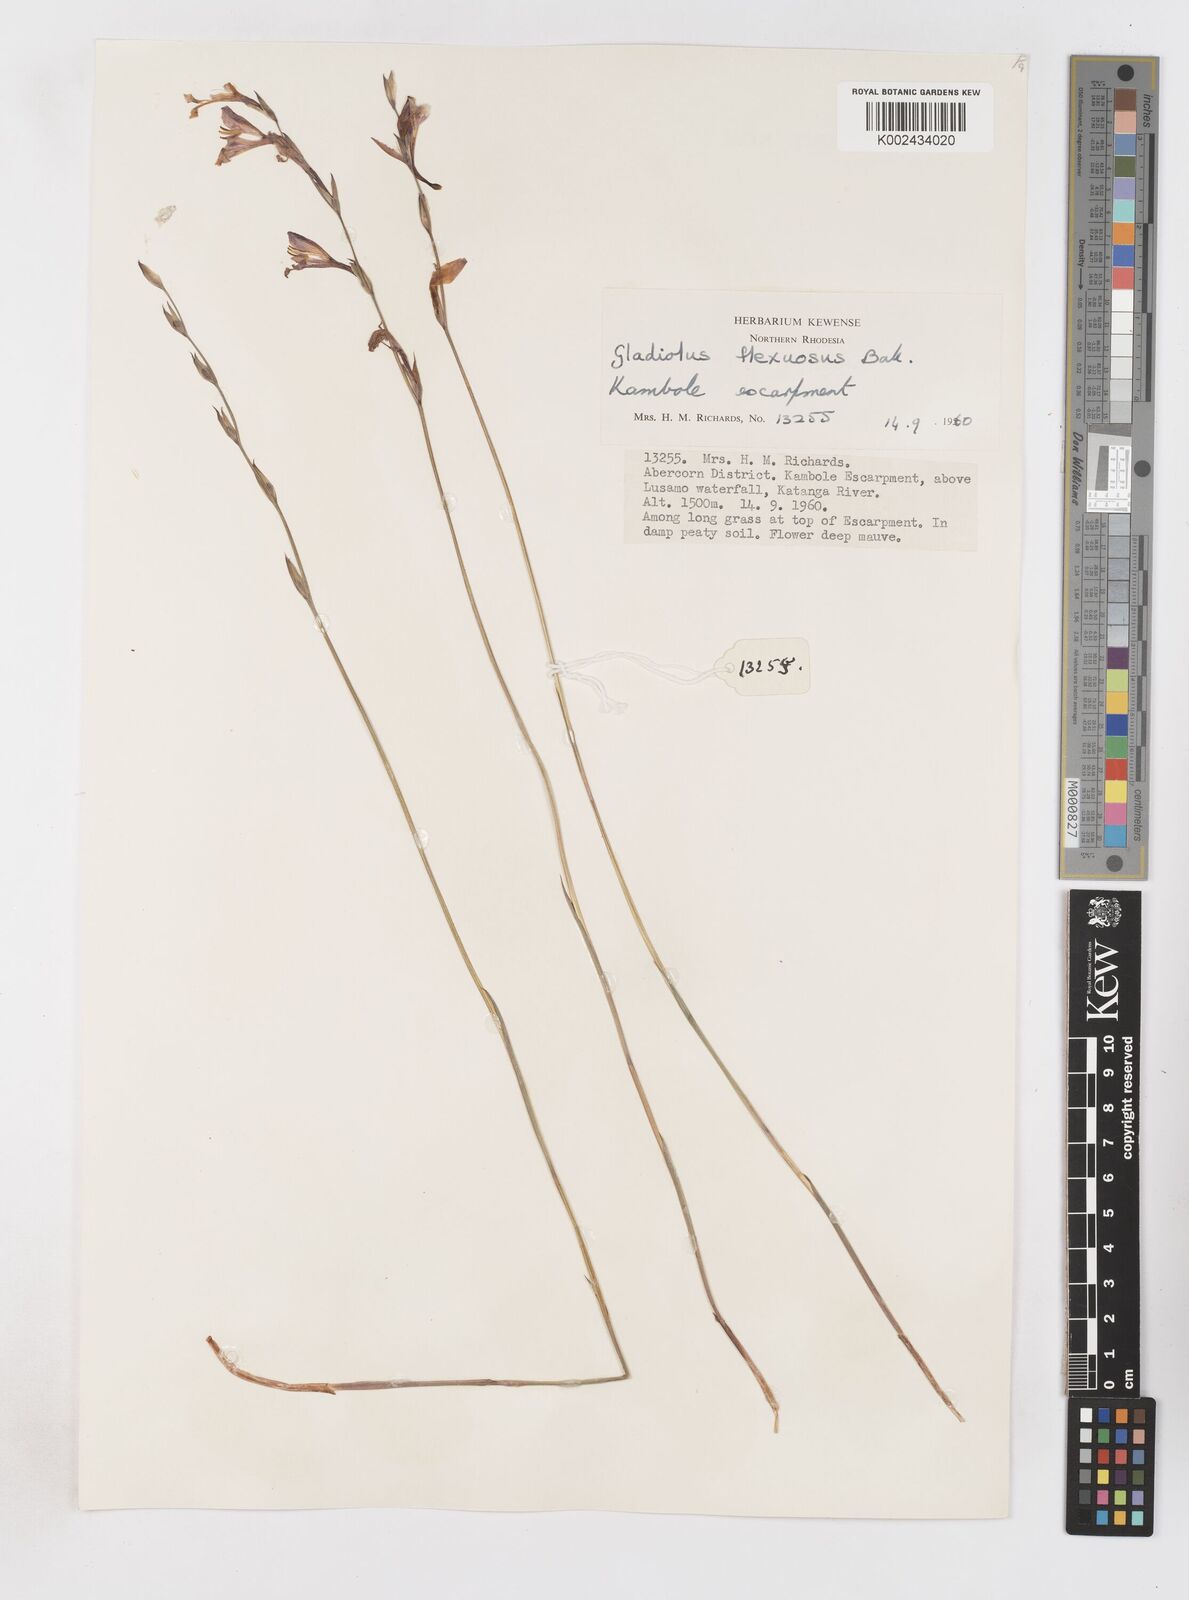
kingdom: Plantae
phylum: Tracheophyta
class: Liliopsida
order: Asparagales
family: Iridaceae
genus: Gladiolus
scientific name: Gladiolus atropurpureus
